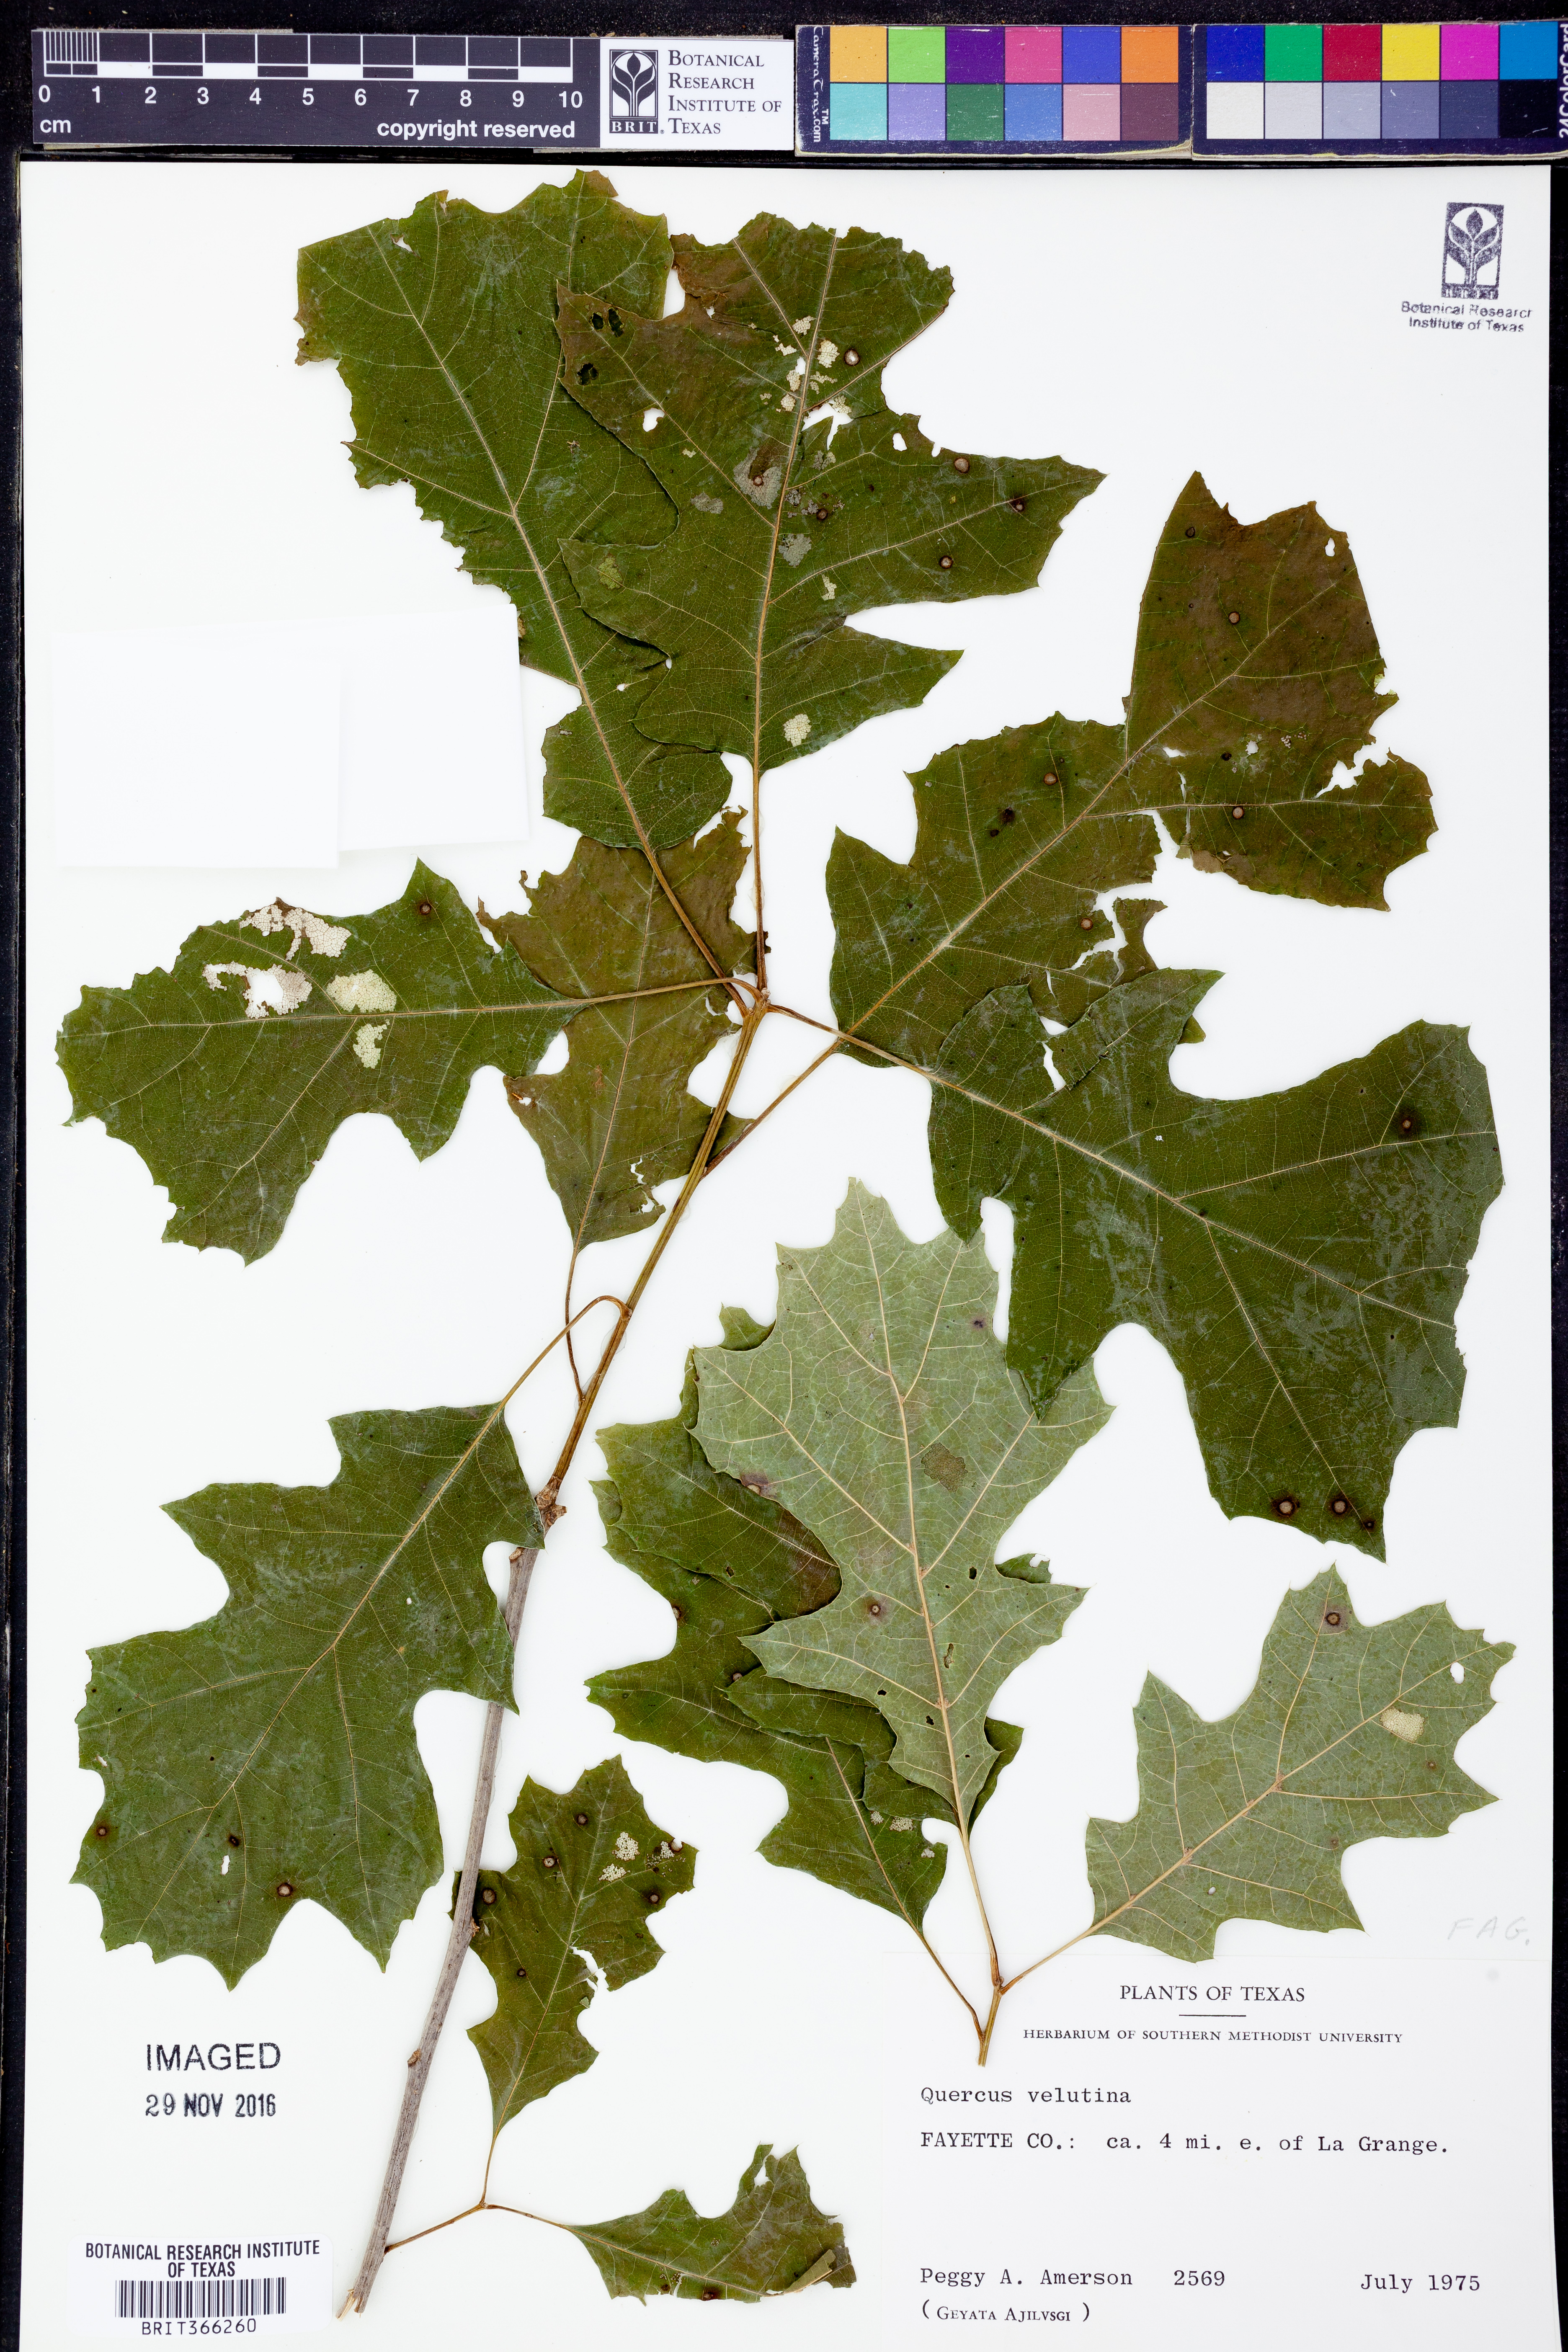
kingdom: Plantae
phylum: Tracheophyta
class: Magnoliopsida
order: Fagales
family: Fagaceae
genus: Quercus
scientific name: Quercus velutina
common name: Black oak
